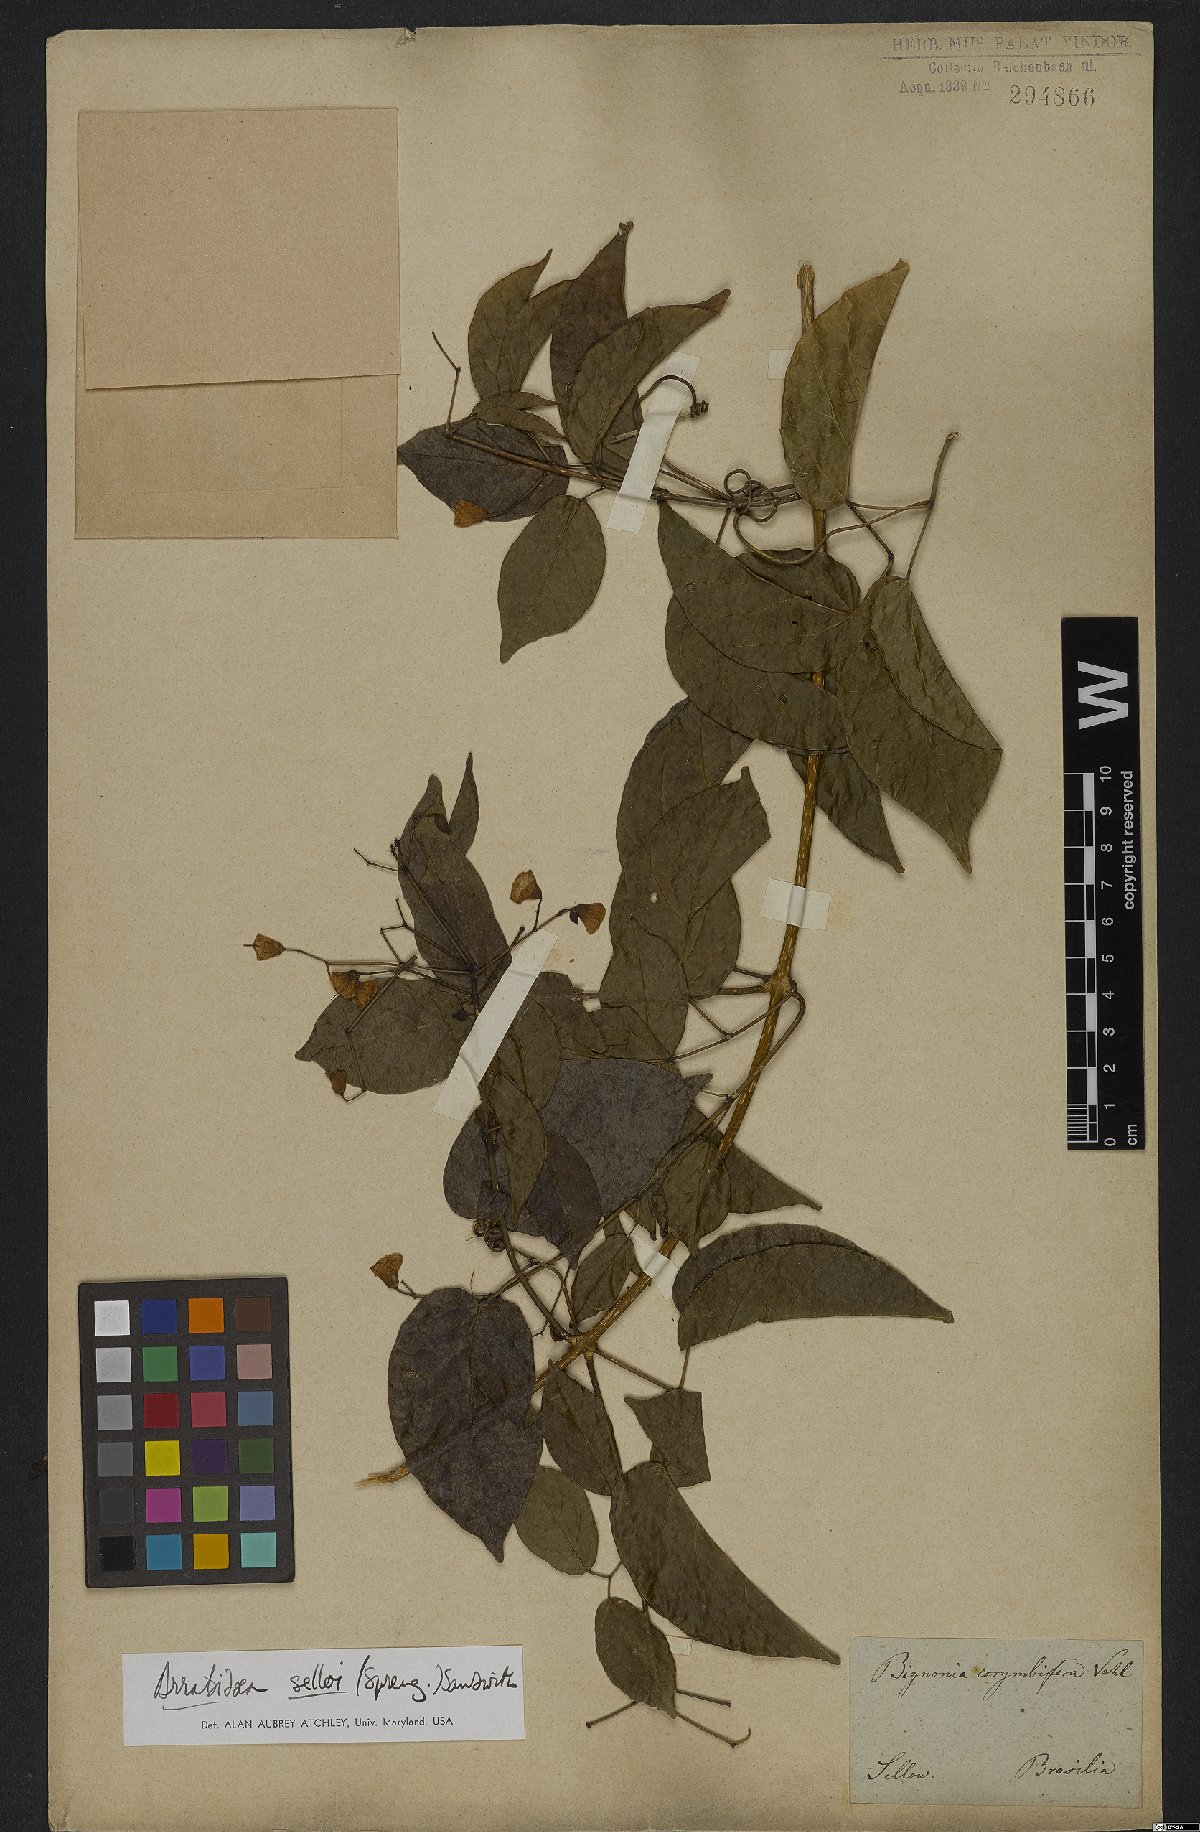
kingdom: Plantae
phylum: Tracheophyta
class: Magnoliopsida
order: Lamiales
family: Bignoniaceae
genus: Tanaecium
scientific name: Tanaecium selloi
